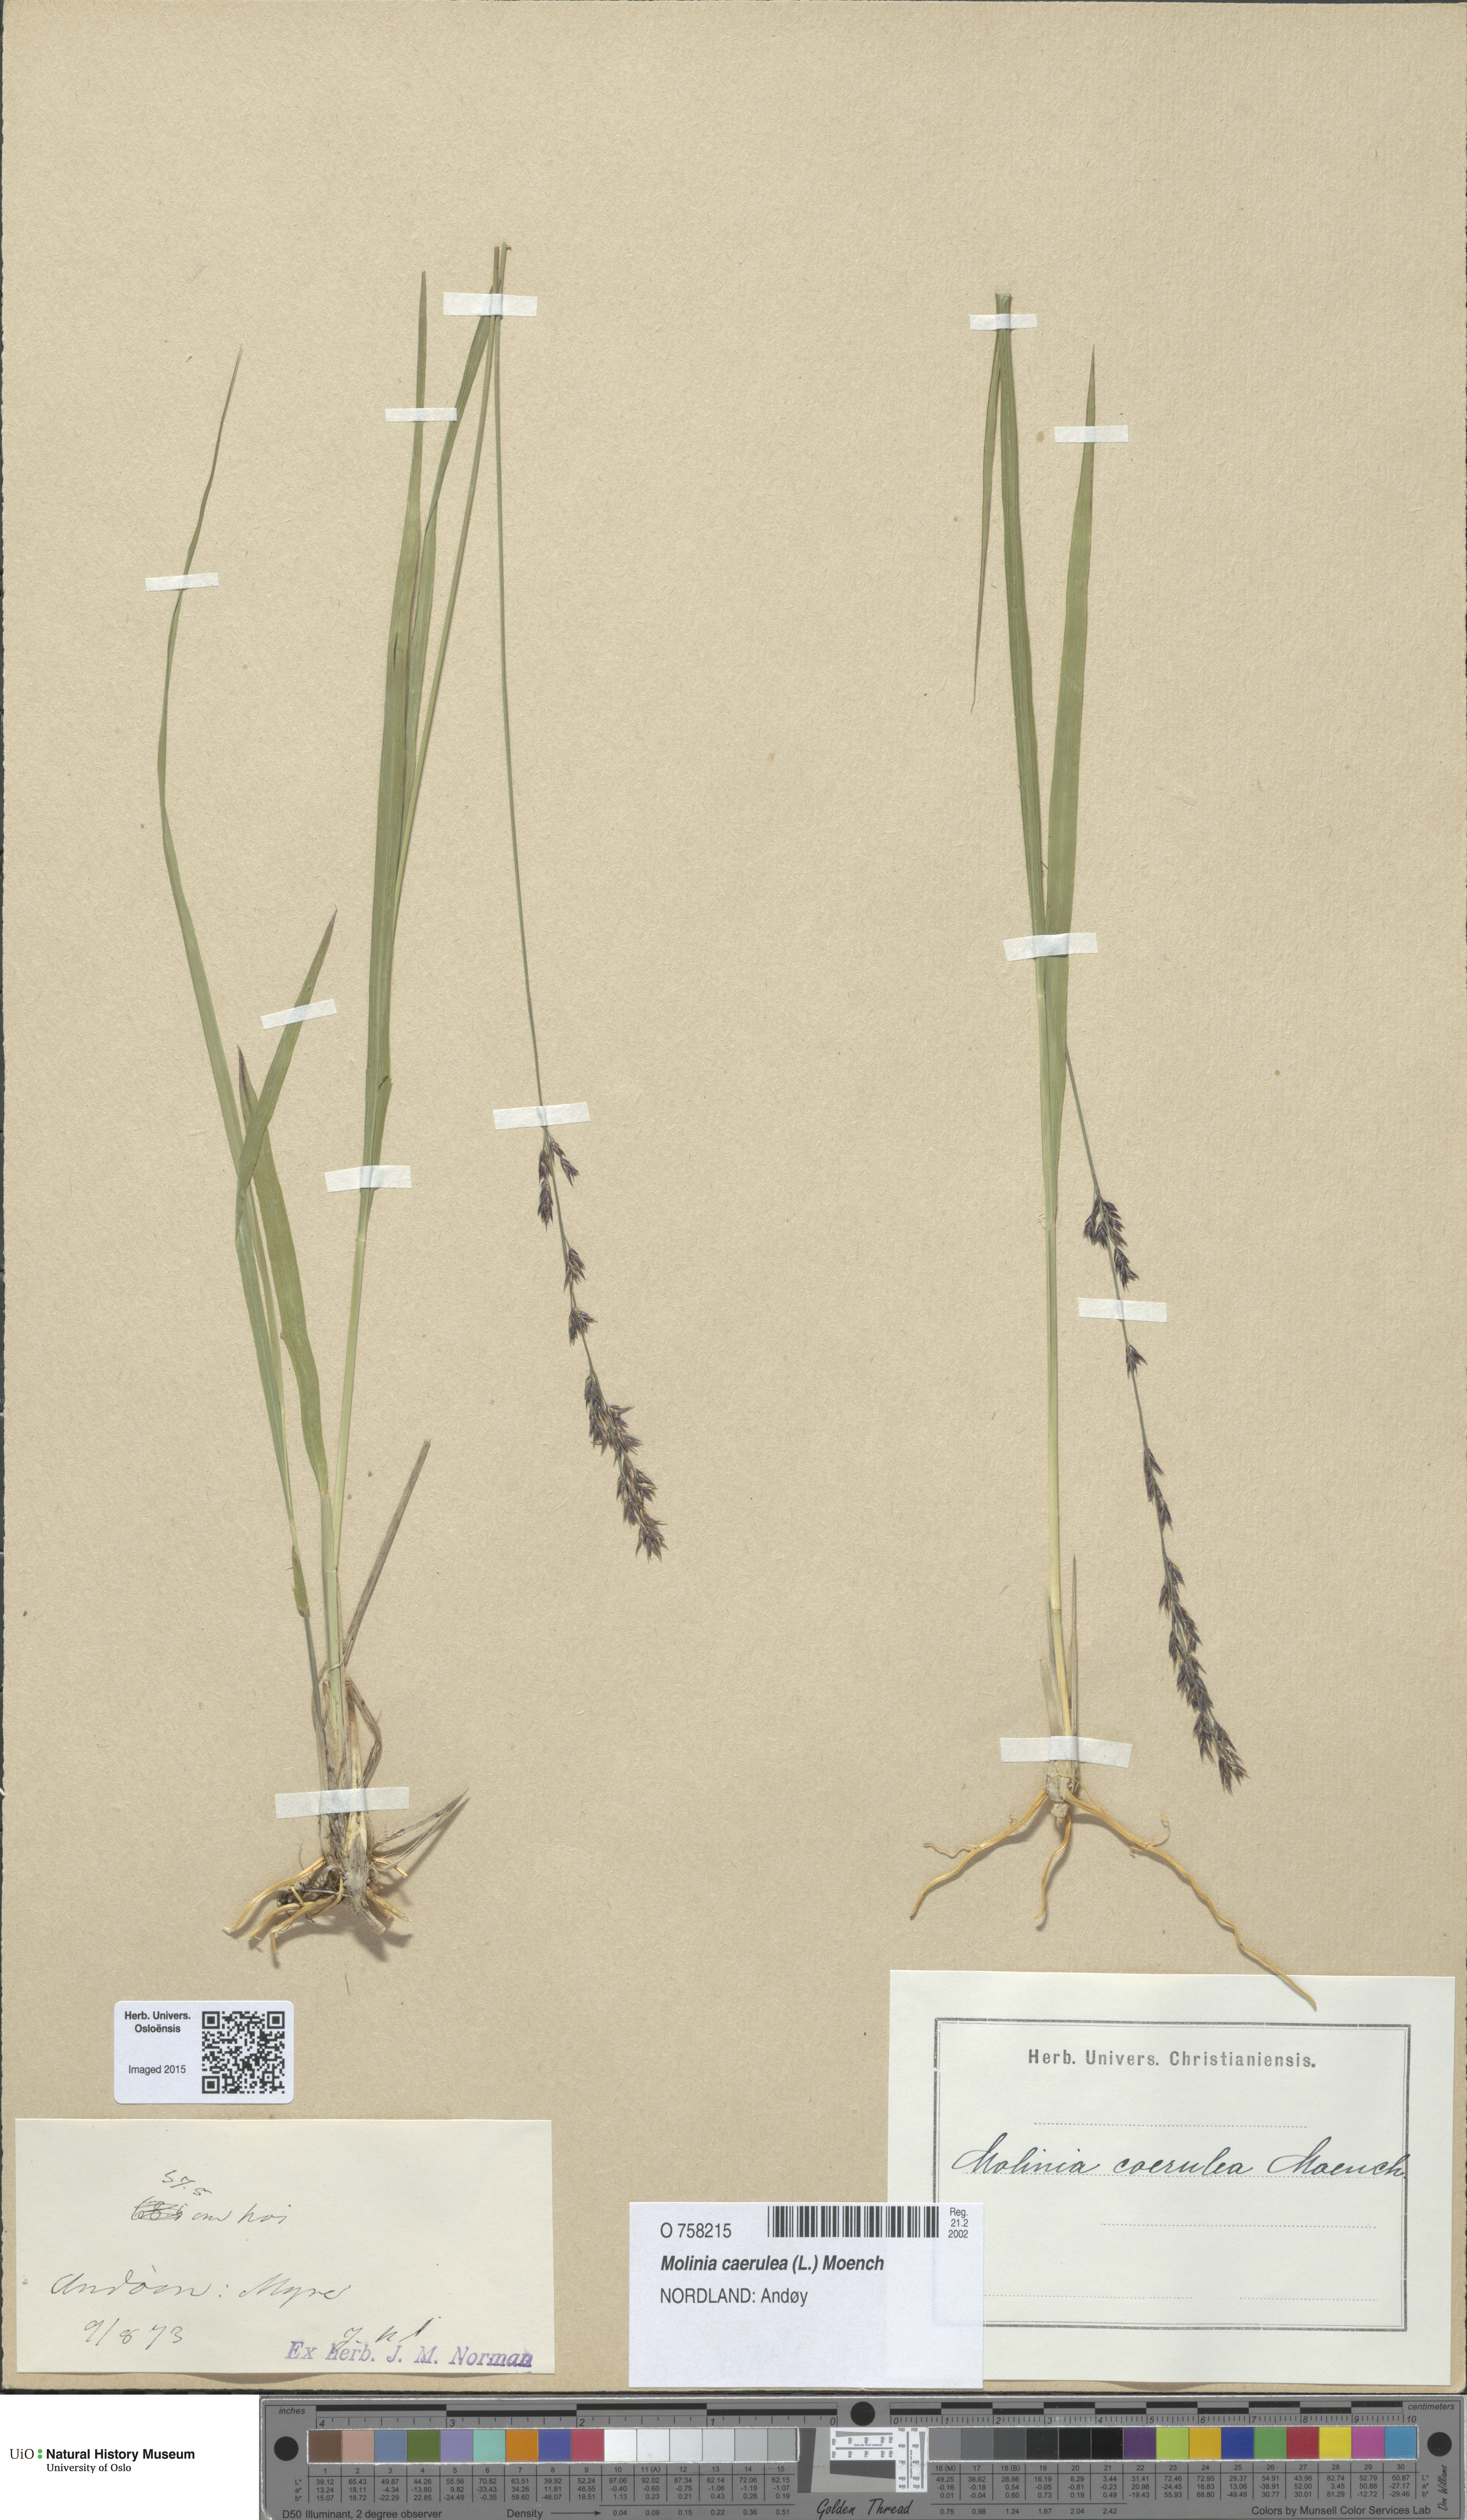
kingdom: Plantae
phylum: Tracheophyta
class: Liliopsida
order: Poales
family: Poaceae
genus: Molinia
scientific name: Molinia caerulea
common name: Purple moor-grass
